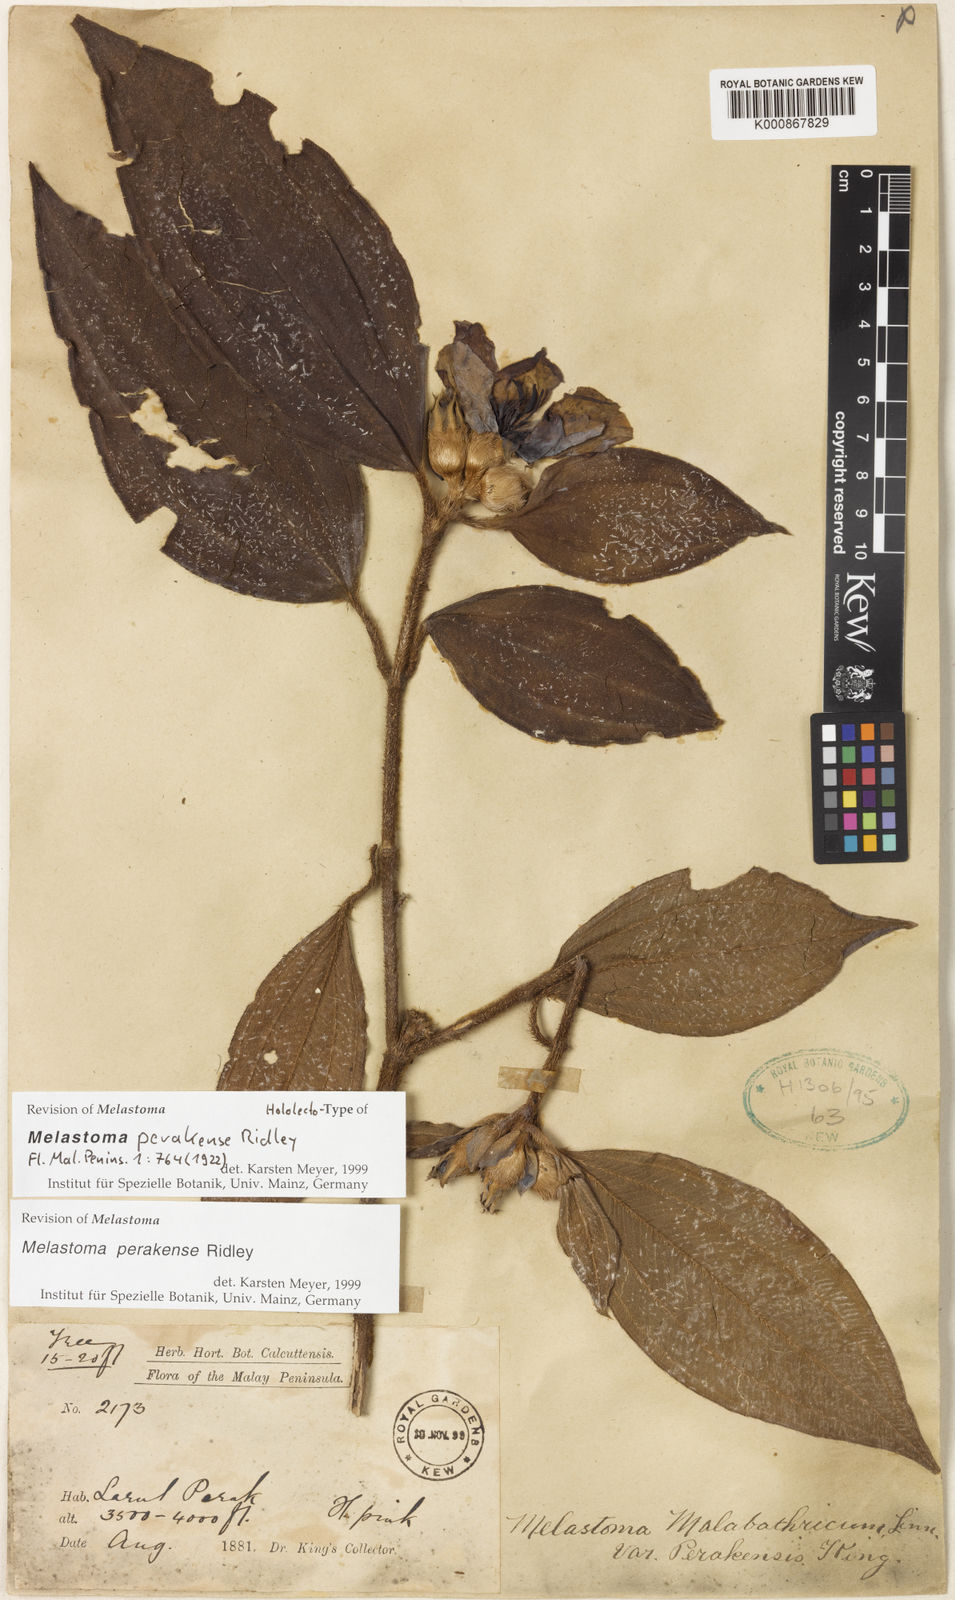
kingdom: Plantae
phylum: Tracheophyta
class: Magnoliopsida
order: Myrtales
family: Melastomataceae
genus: Melastoma
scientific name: Melastoma perakense
